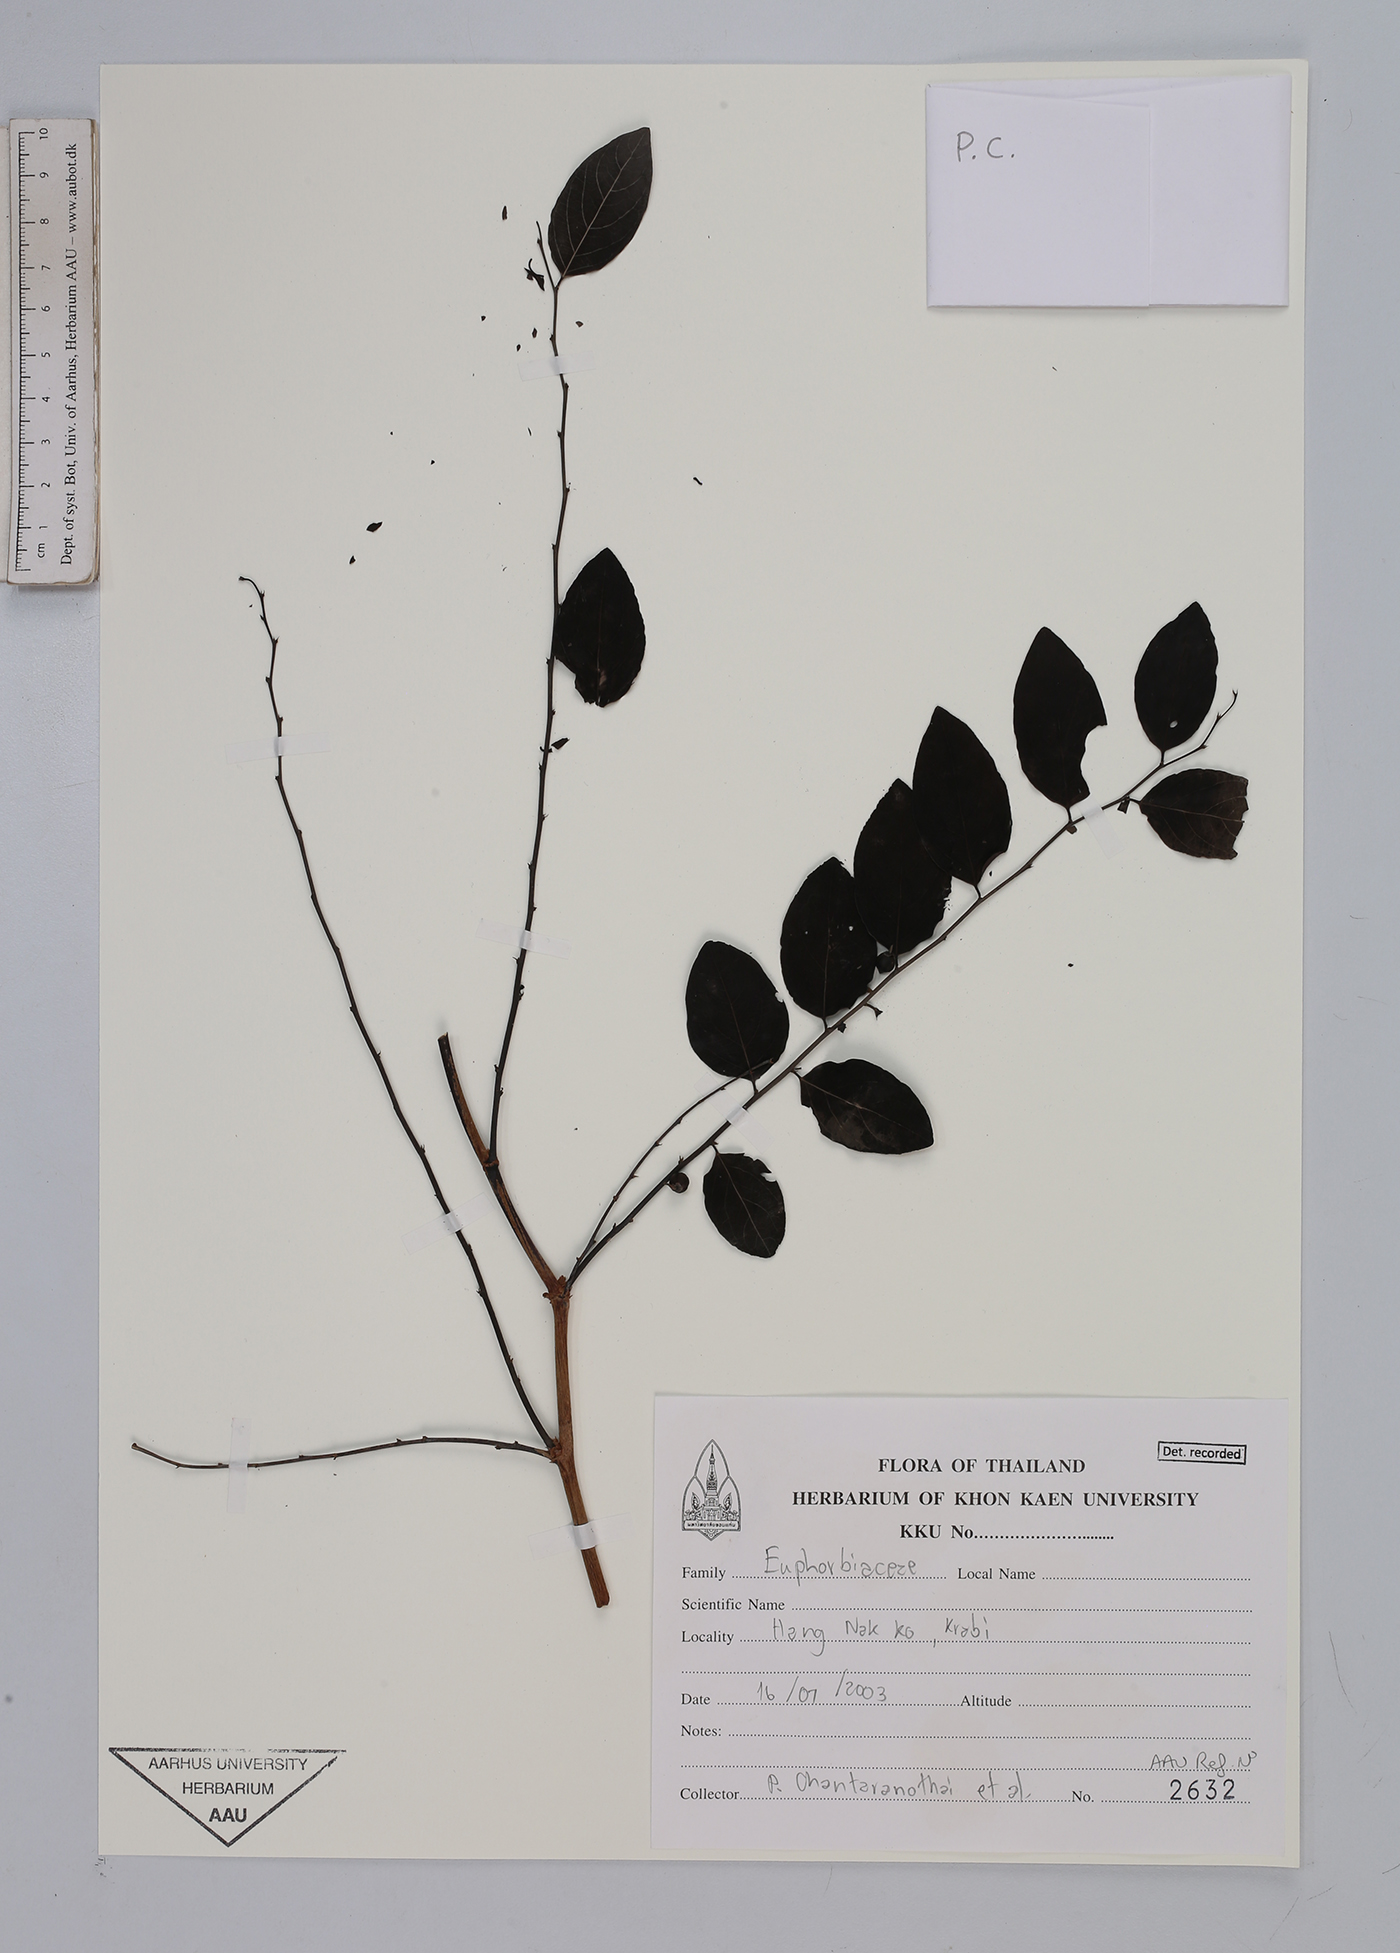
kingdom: Plantae
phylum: Tracheophyta
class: Magnoliopsida
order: Malpighiales
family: Euphorbiaceae
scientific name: Euphorbiaceae
